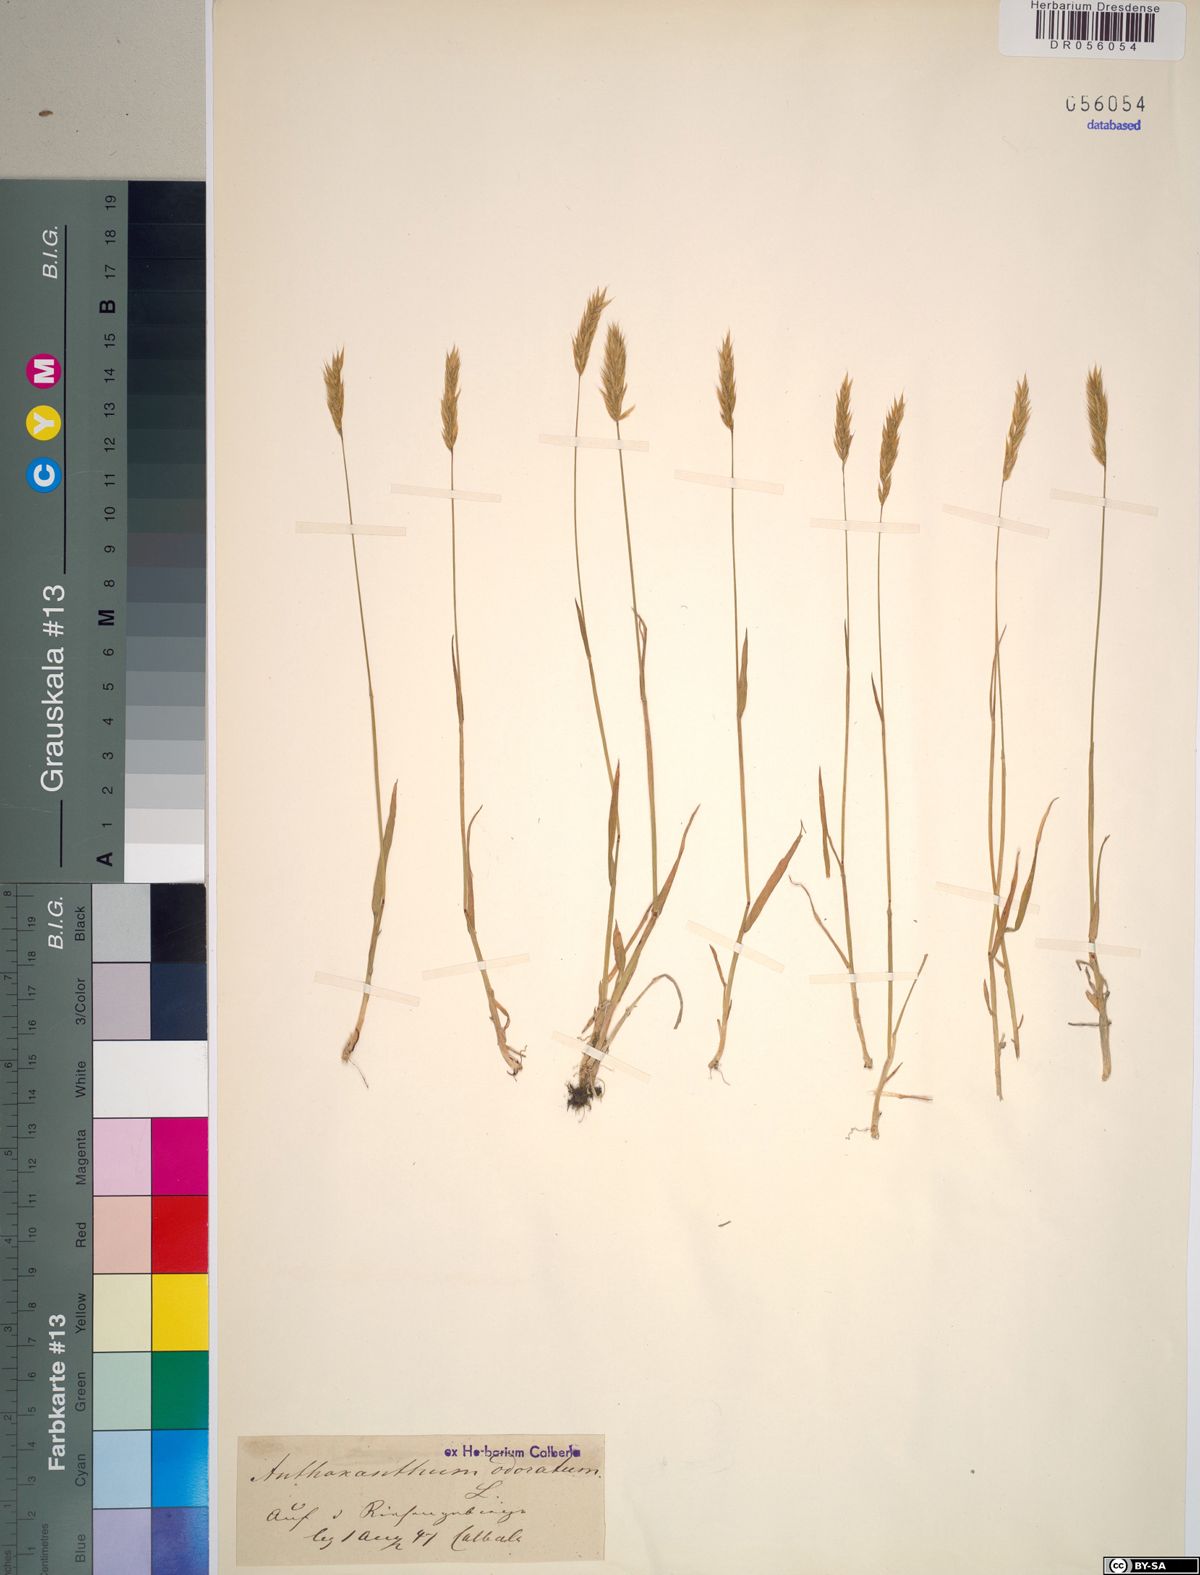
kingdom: Plantae
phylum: Tracheophyta
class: Liliopsida
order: Poales
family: Poaceae
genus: Anthoxanthum
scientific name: Anthoxanthum odoratum
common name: Sweet vernalgrass
